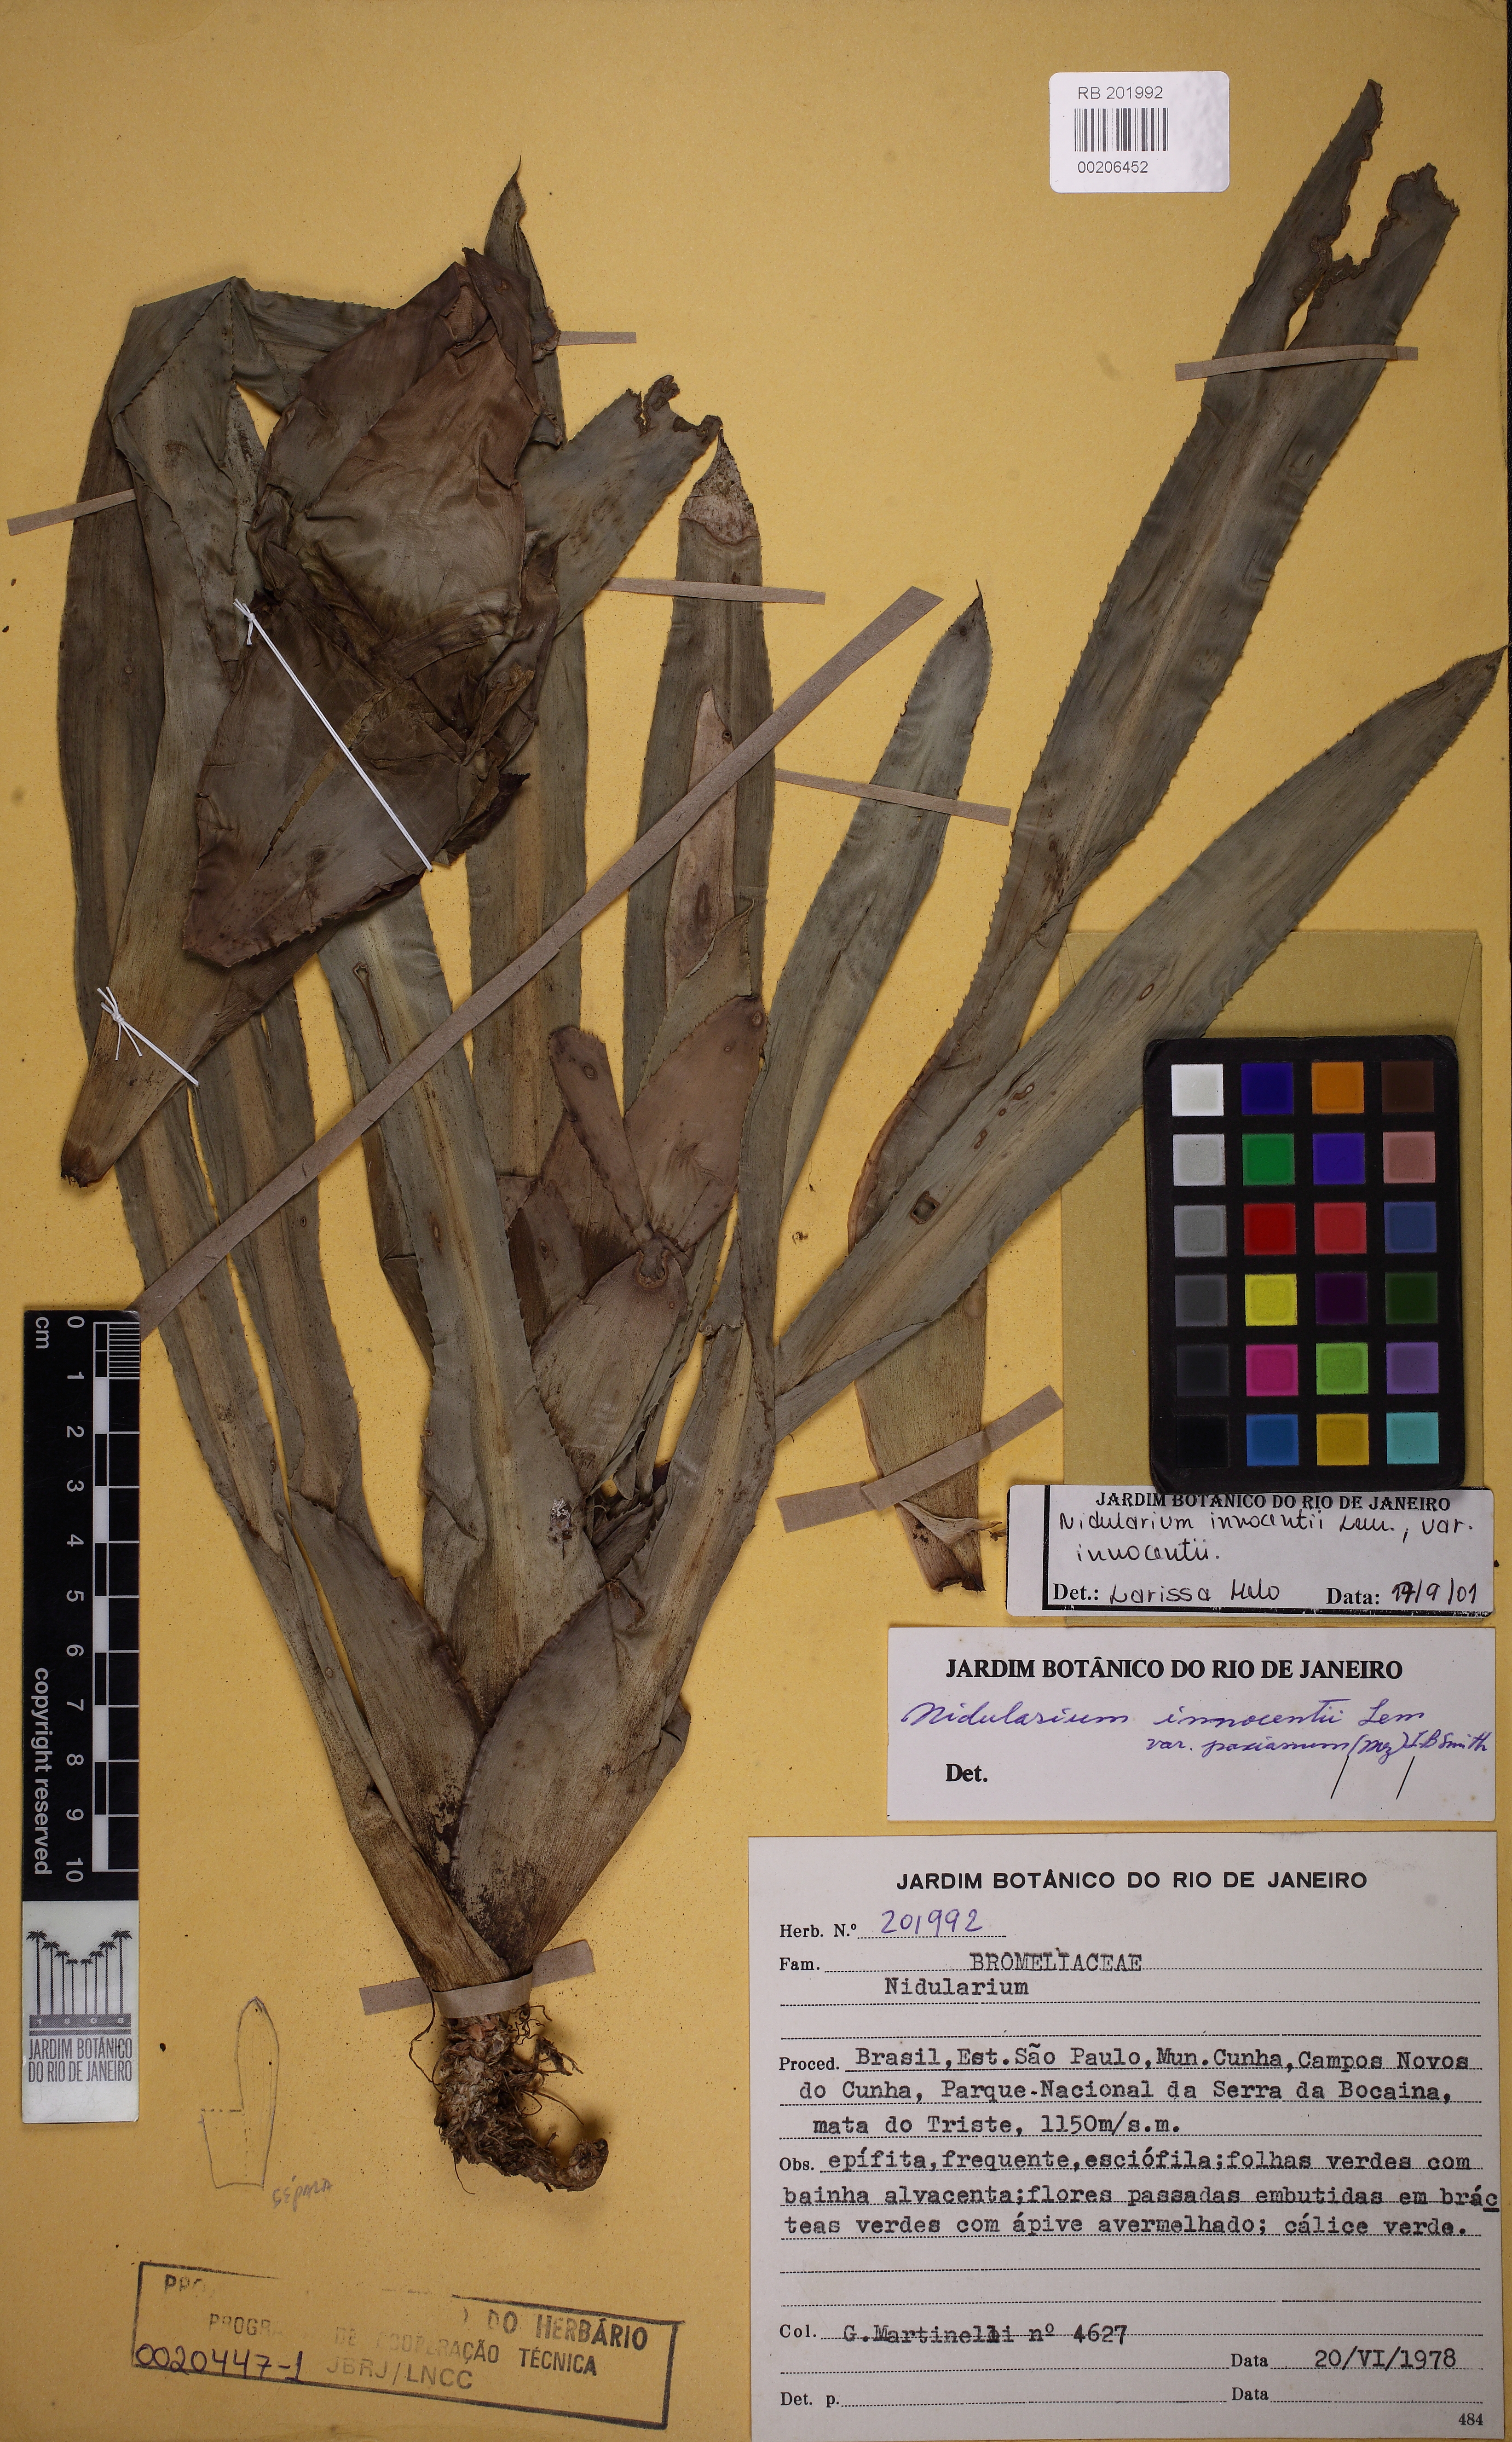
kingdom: Plantae
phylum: Tracheophyta
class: Liliopsida
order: Poales
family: Bromeliaceae
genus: Nidularium
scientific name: Nidularium innocentii
